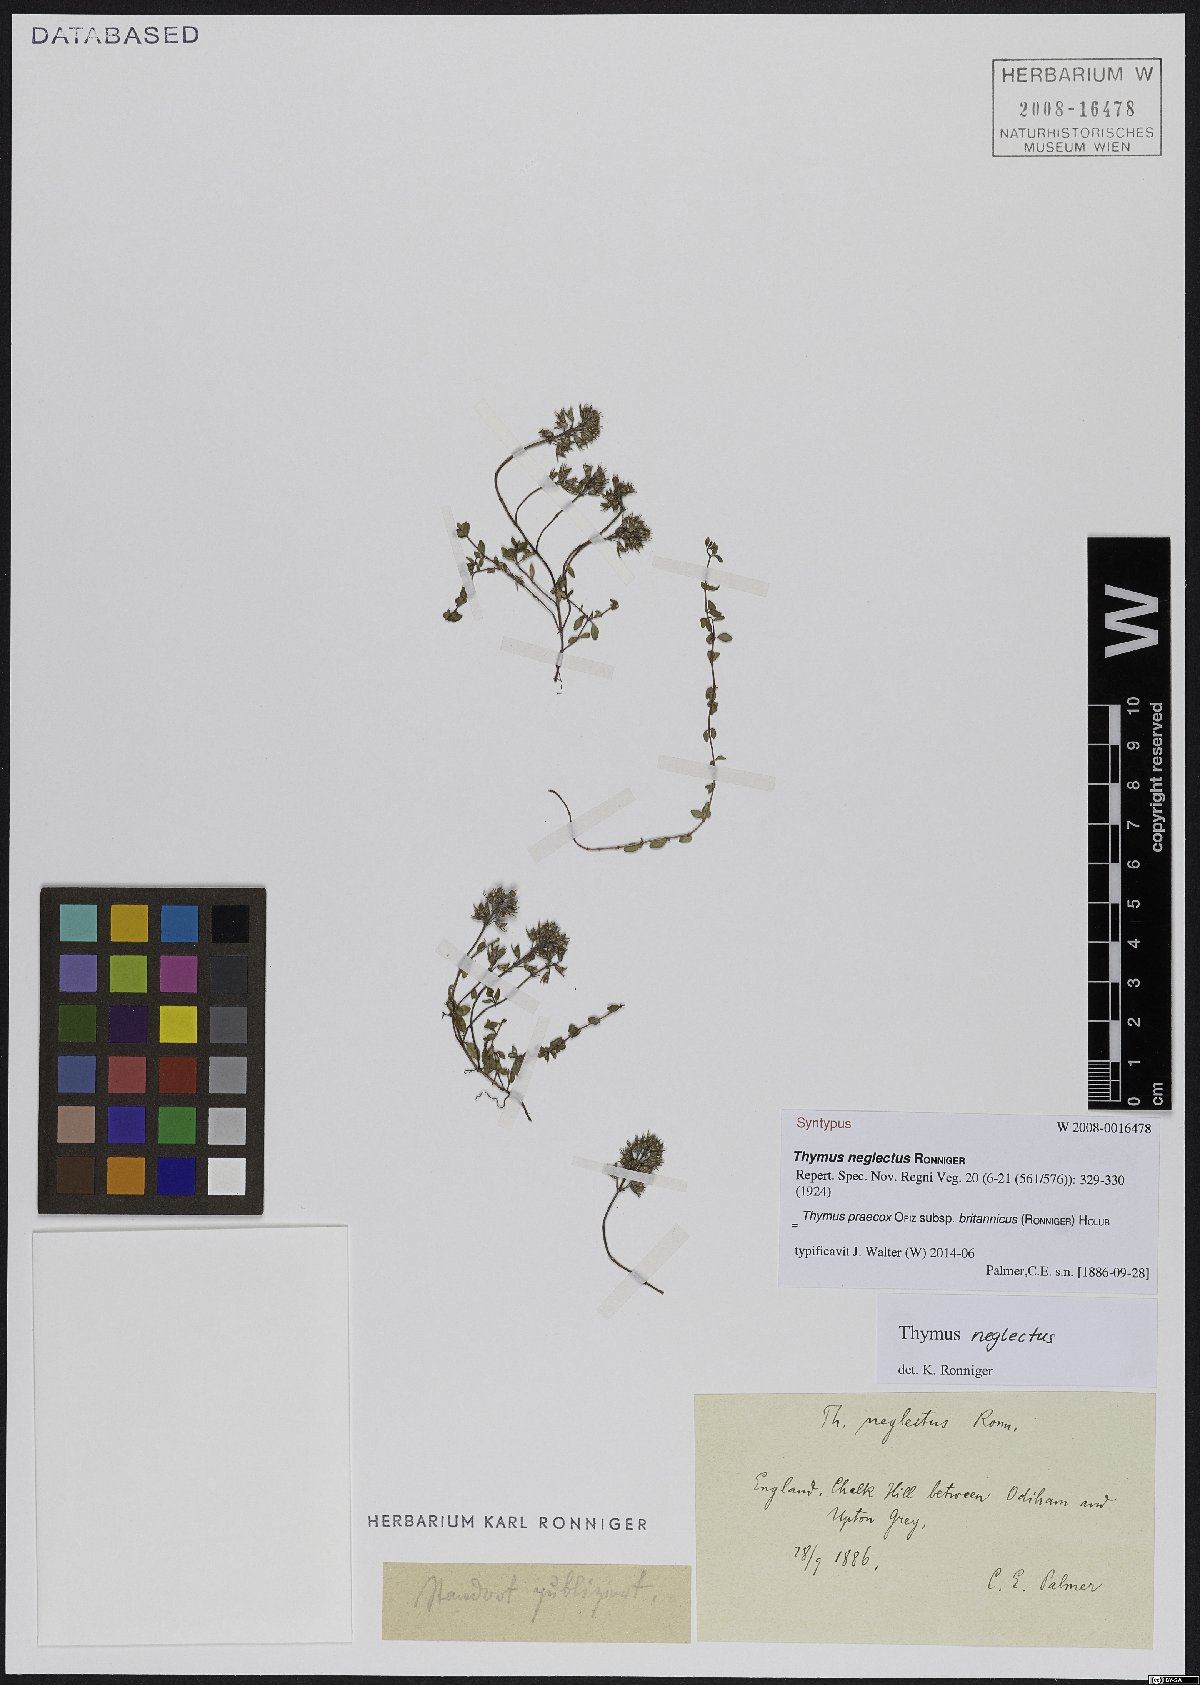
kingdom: Plantae
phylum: Tracheophyta
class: Magnoliopsida
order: Lamiales
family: Lamiaceae
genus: Thymus
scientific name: Thymus praecox
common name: Wild thyme
